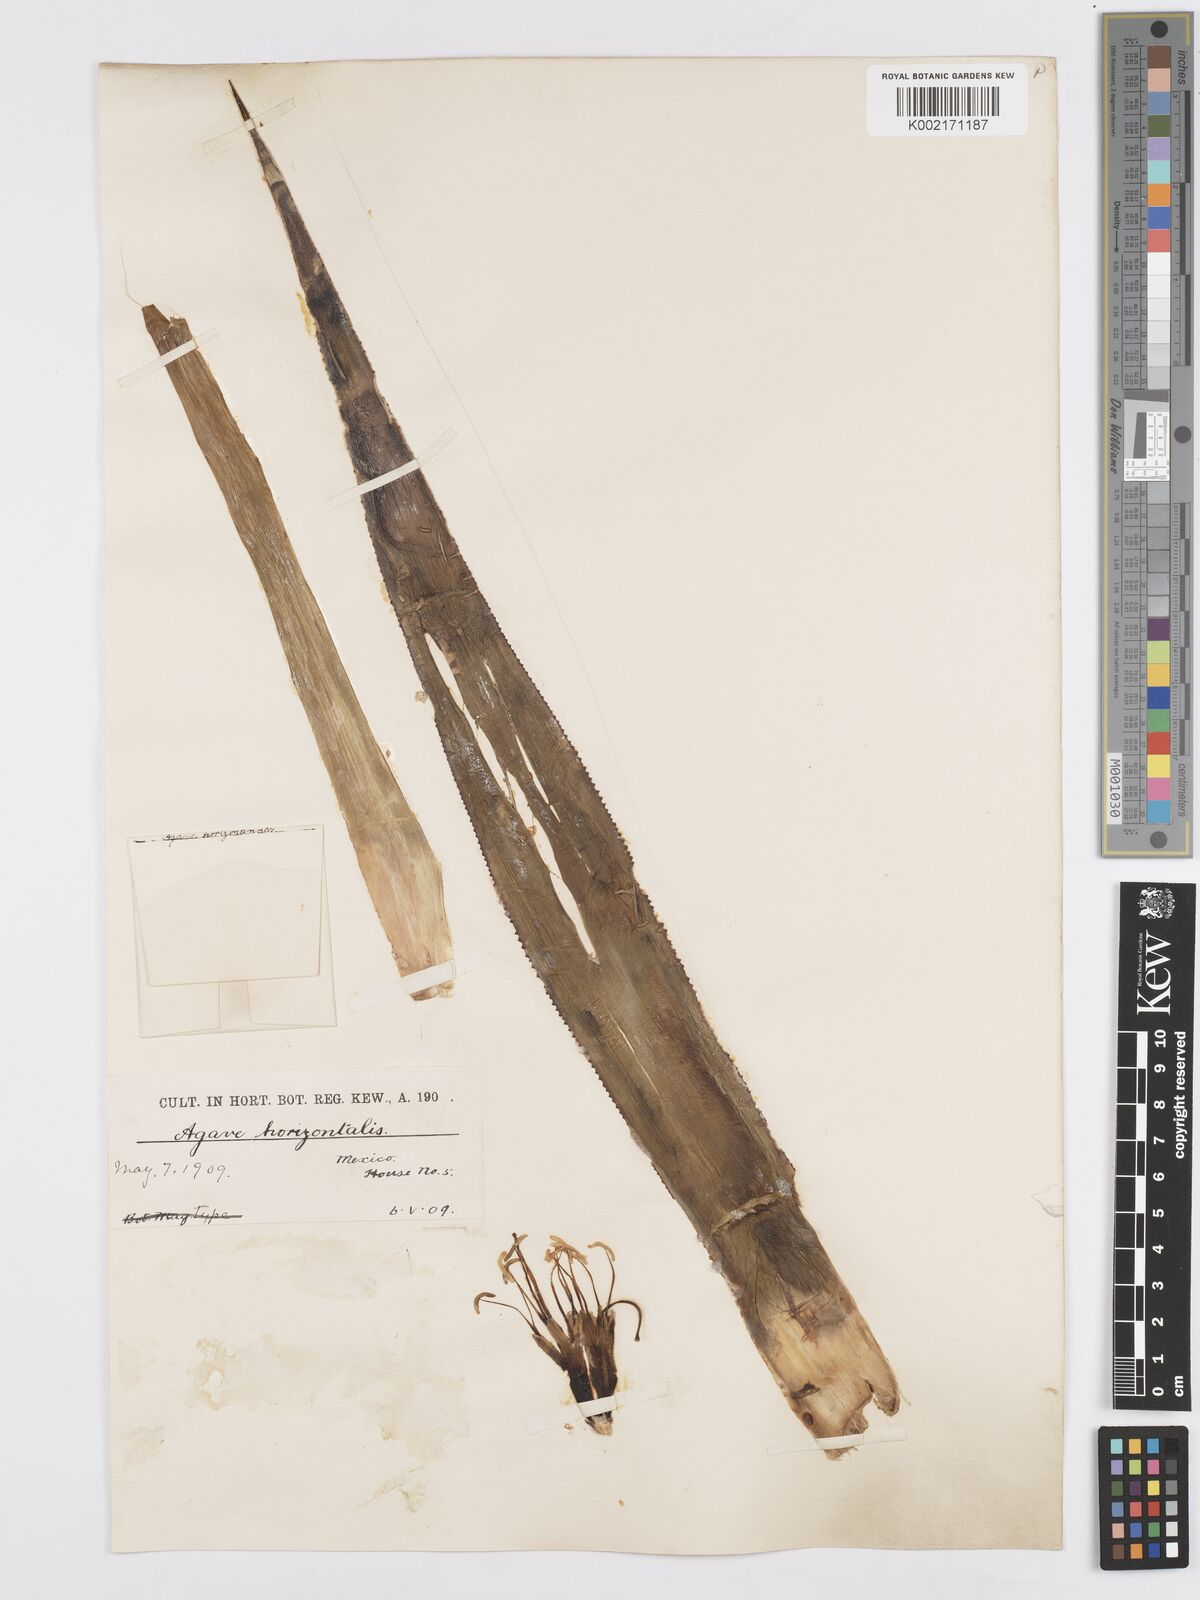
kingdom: Plantae
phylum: Tracheophyta
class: Liliopsida
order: Asparagales
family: Asparagaceae
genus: Agave
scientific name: Agave horizontalis
